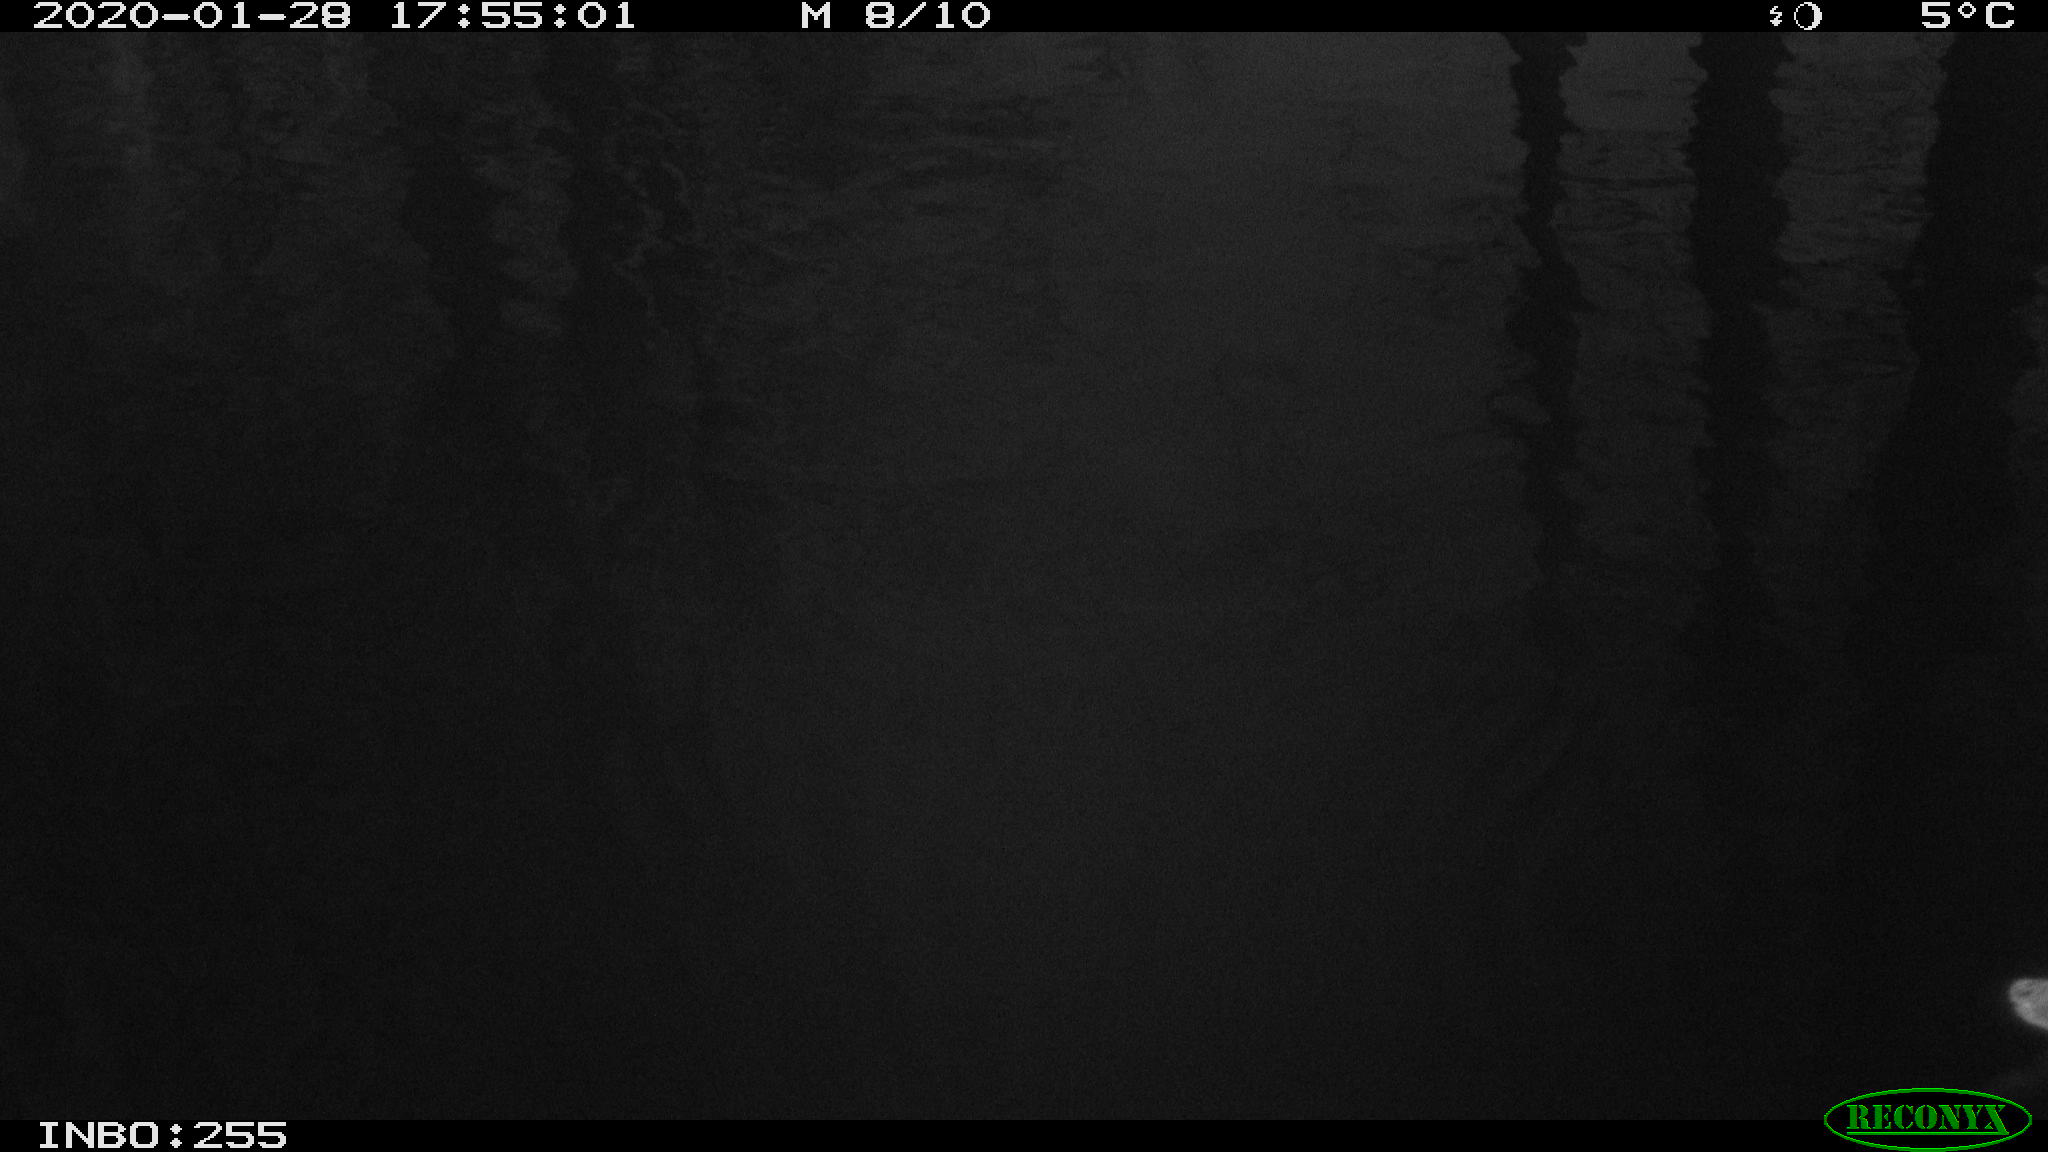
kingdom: Animalia
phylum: Chordata
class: Aves
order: Gruiformes
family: Rallidae
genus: Gallinula
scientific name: Gallinula chloropus
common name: Common moorhen
